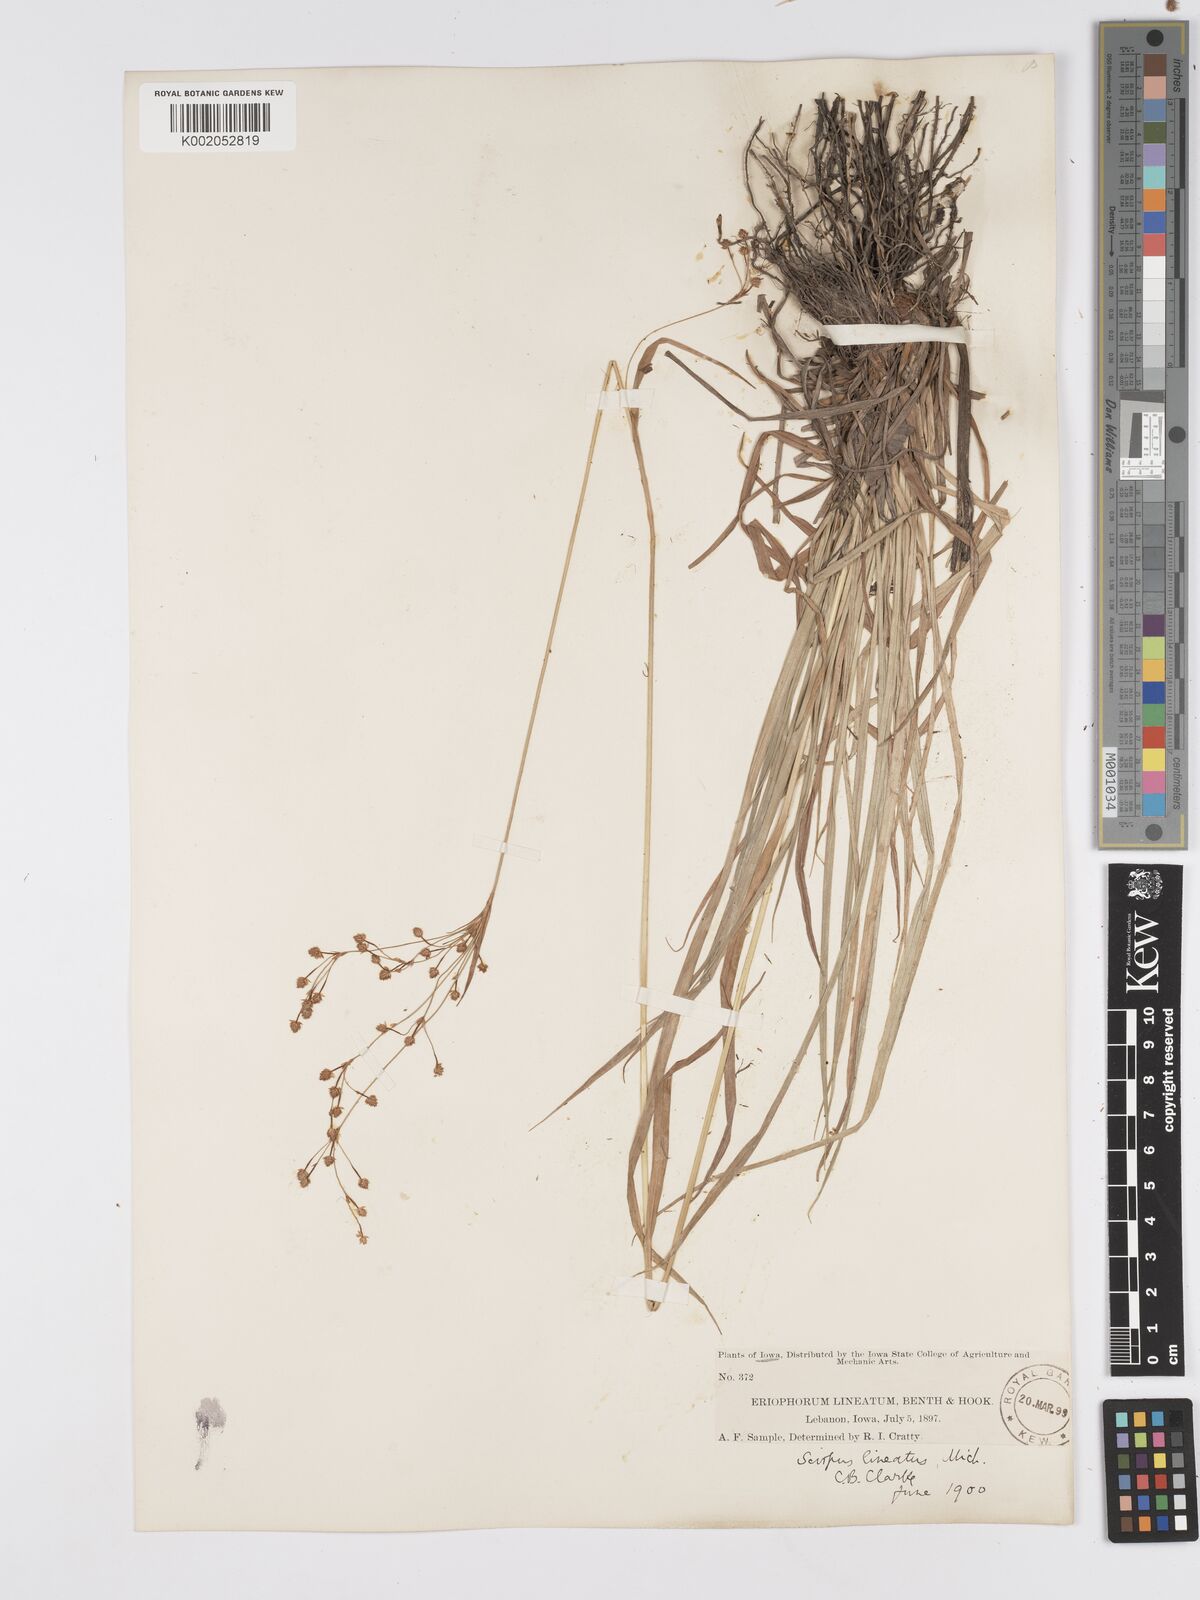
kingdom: Plantae
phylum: Tracheophyta
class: Liliopsida
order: Poales
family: Cyperaceae
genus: Scirpus
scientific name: Scirpus lineatus
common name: Drooping bulrush
